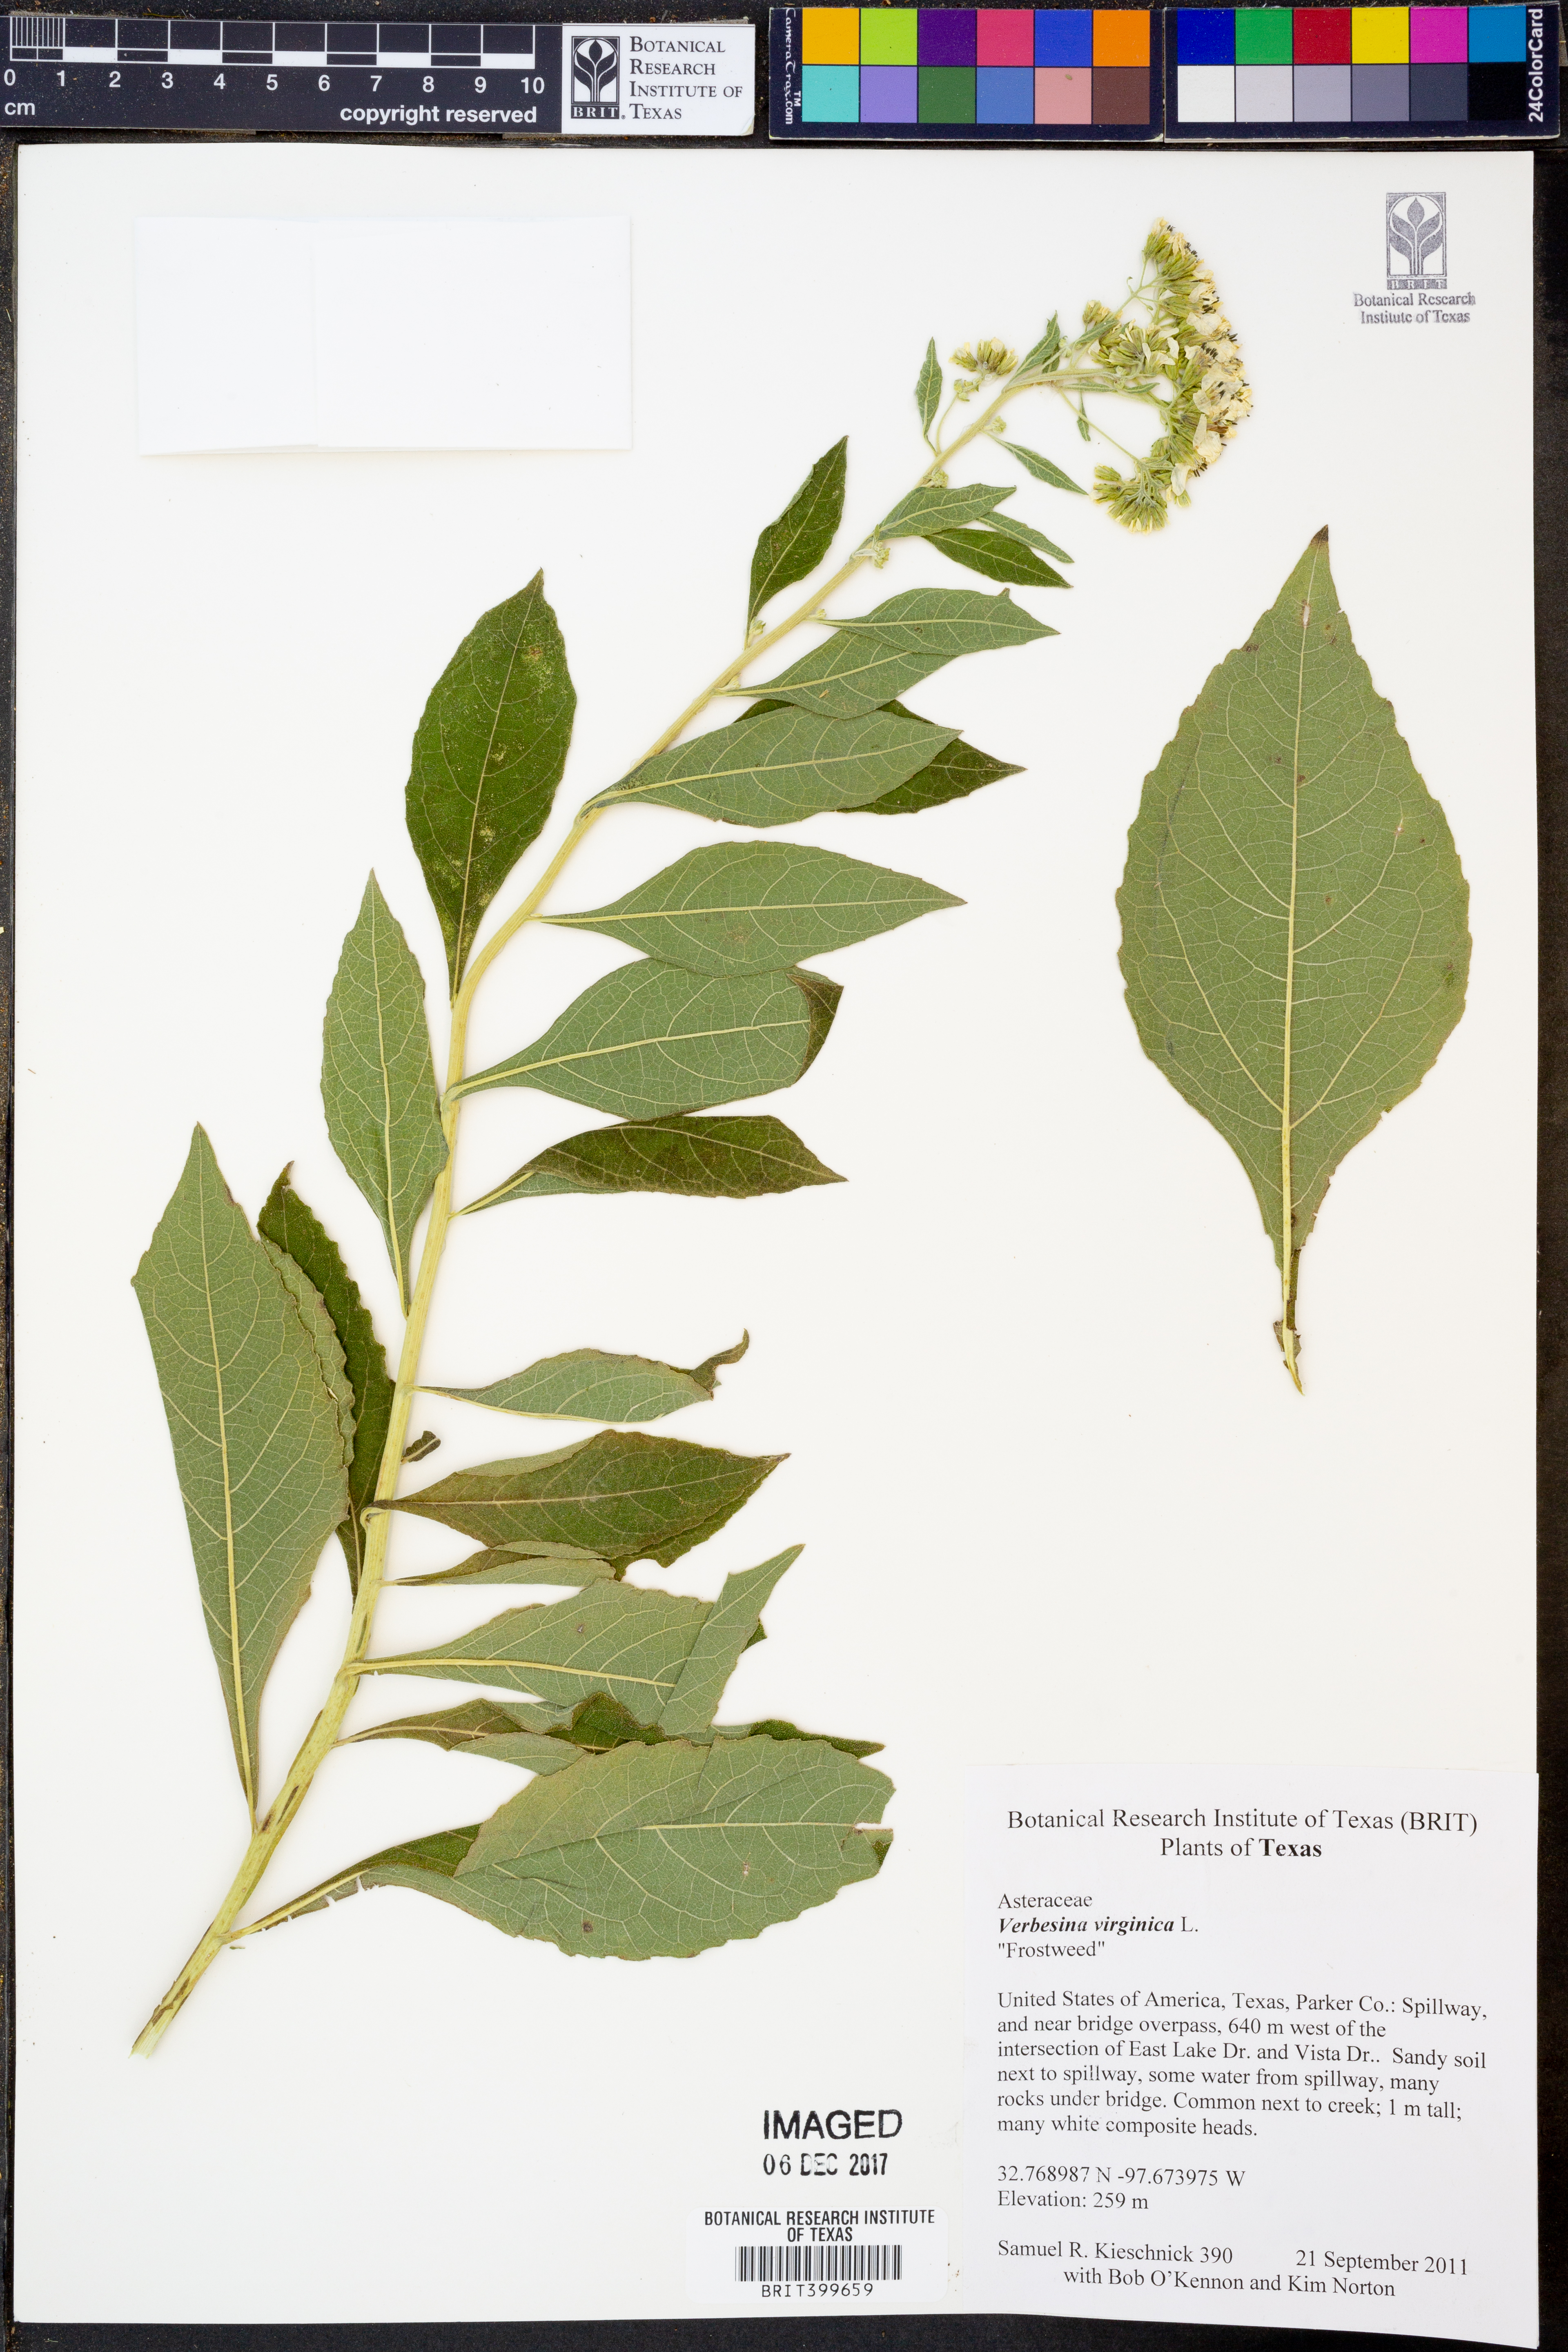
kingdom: Plantae
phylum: Tracheophyta
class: Magnoliopsida
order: Asterales
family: Asteraceae
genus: Verbesina
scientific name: Verbesina virginica
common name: Frostweed
